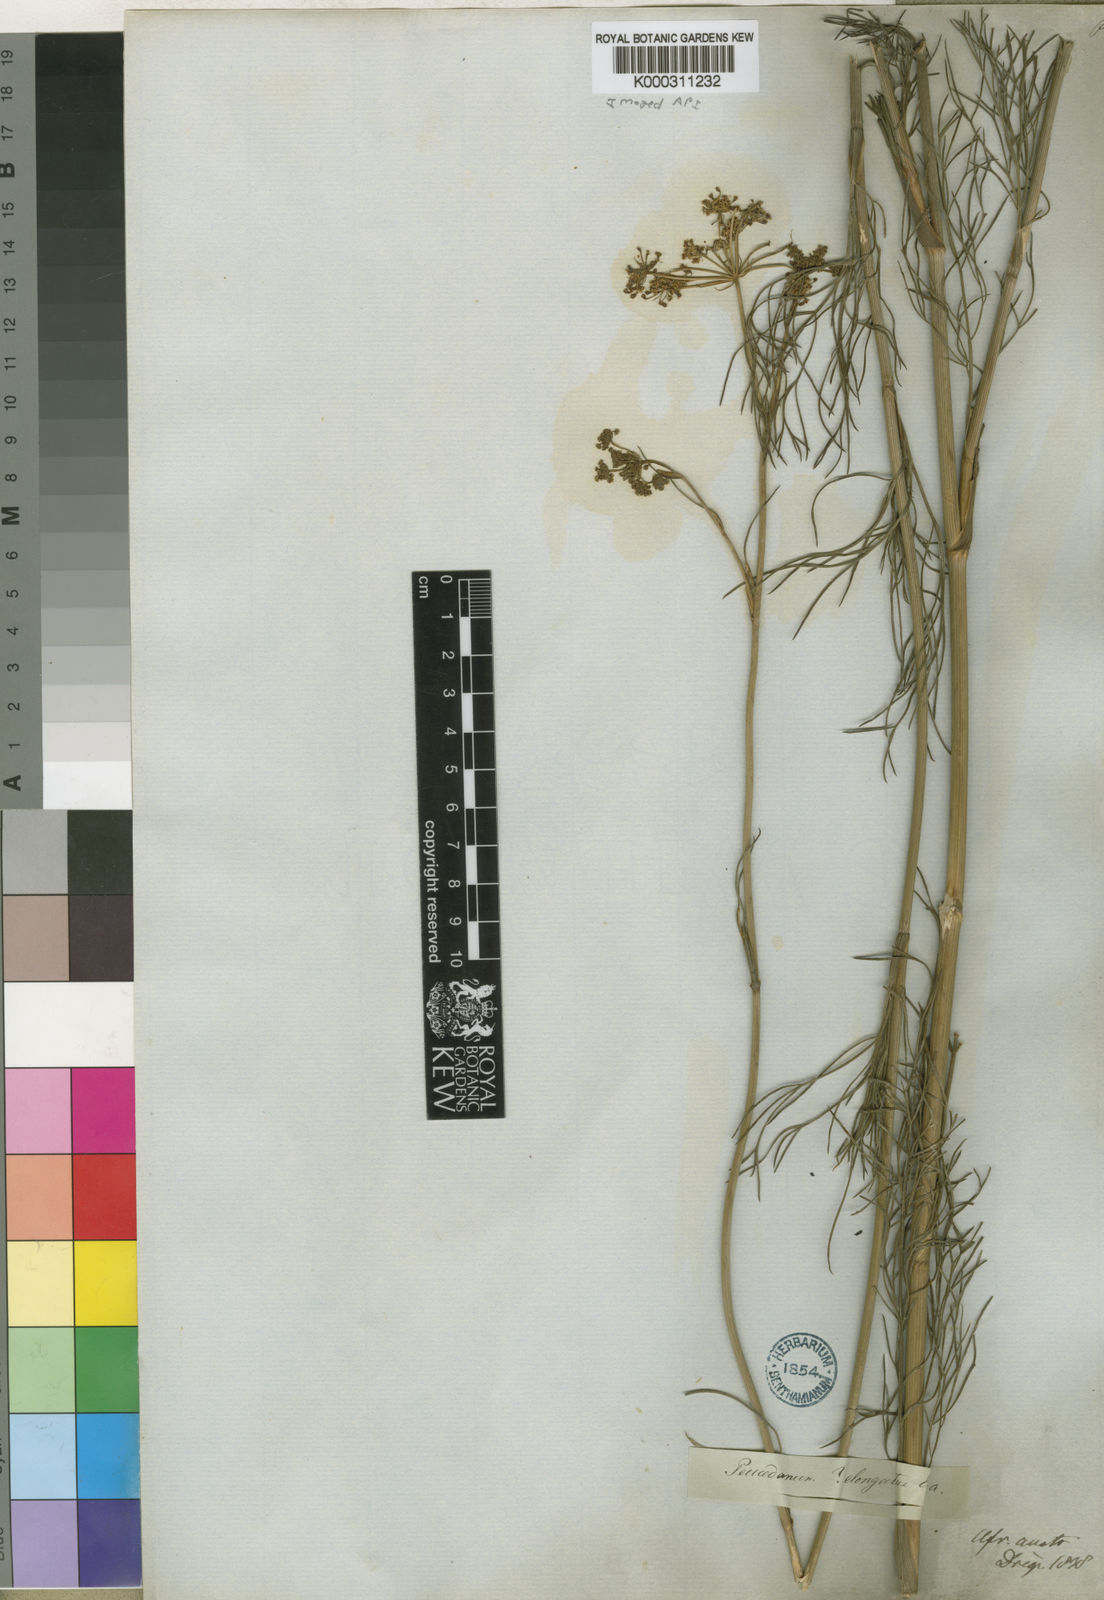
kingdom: Plantae
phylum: Tracheophyta
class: Magnoliopsida
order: Apiales
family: Apiaceae
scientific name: Apiaceae
